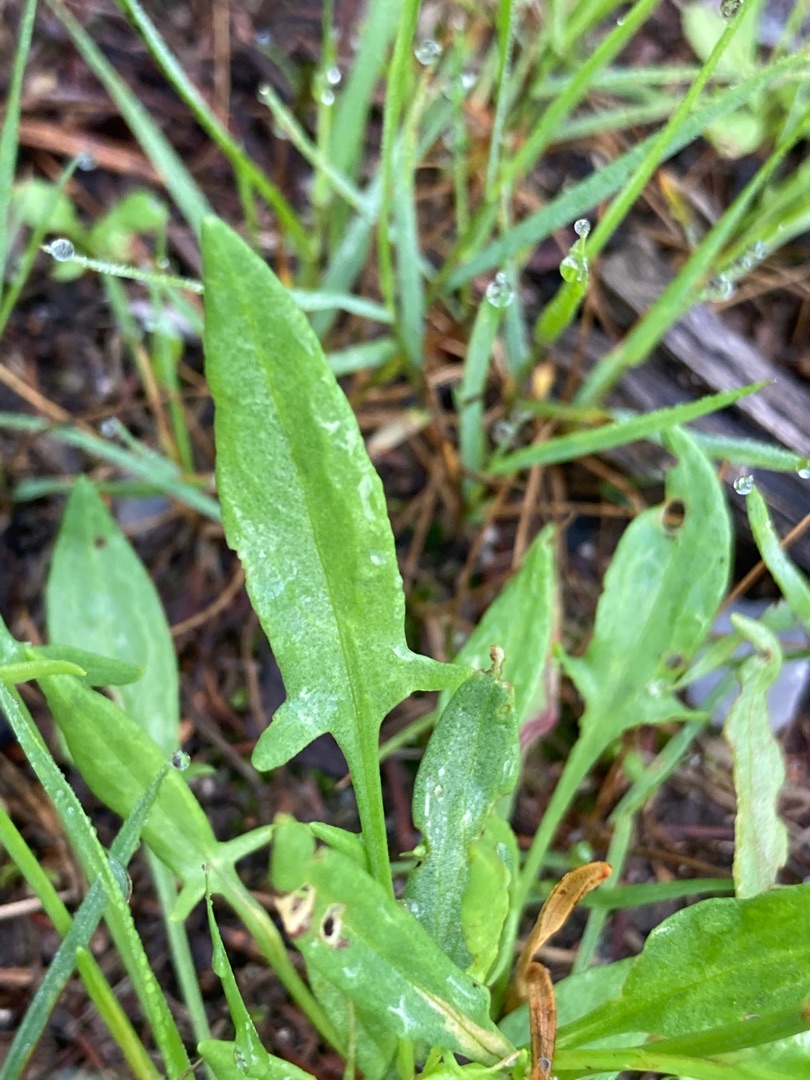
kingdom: Plantae
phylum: Tracheophyta
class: Magnoliopsida
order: Caryophyllales
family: Polygonaceae
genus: Rumex
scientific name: Rumex acetosella
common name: Rødknæ
